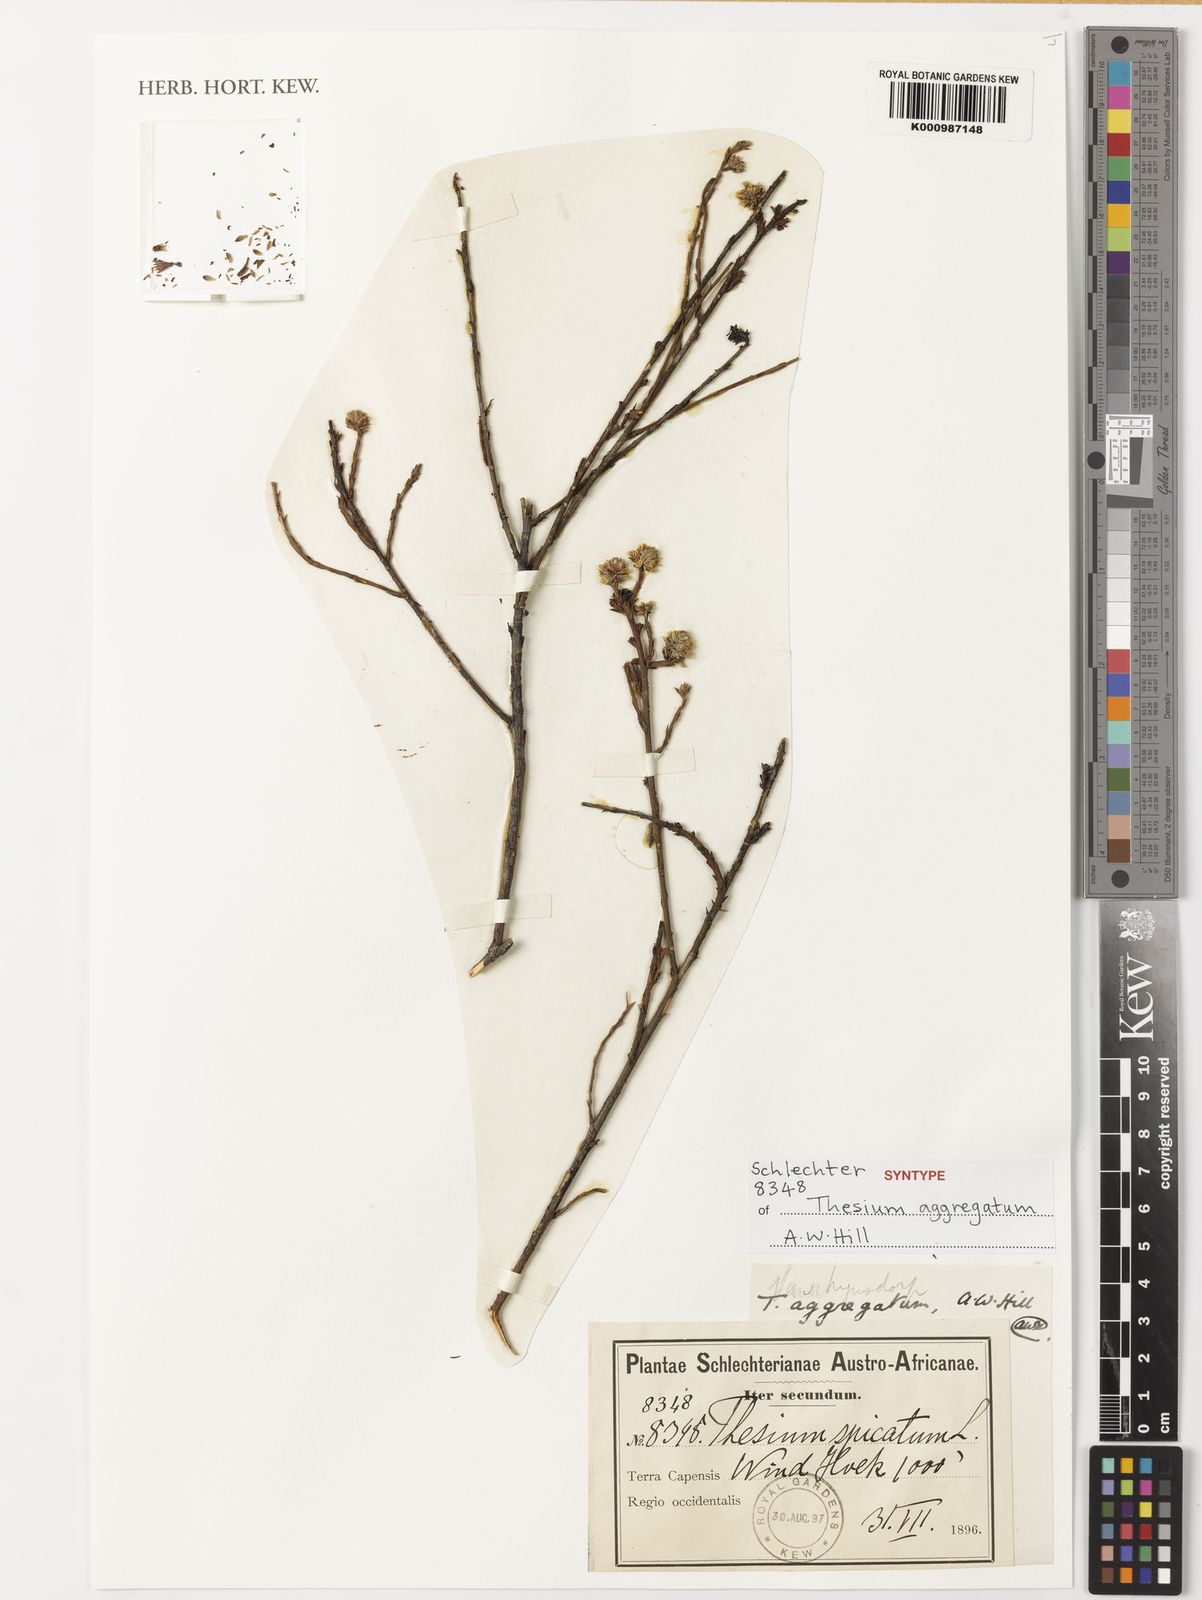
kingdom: Plantae
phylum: Tracheophyta
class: Magnoliopsida
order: Santalales
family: Thesiaceae
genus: Thesium
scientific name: Thesium aggregatum
